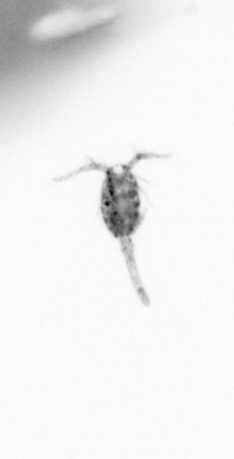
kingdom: Animalia
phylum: Arthropoda
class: Copepoda
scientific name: Copepoda
